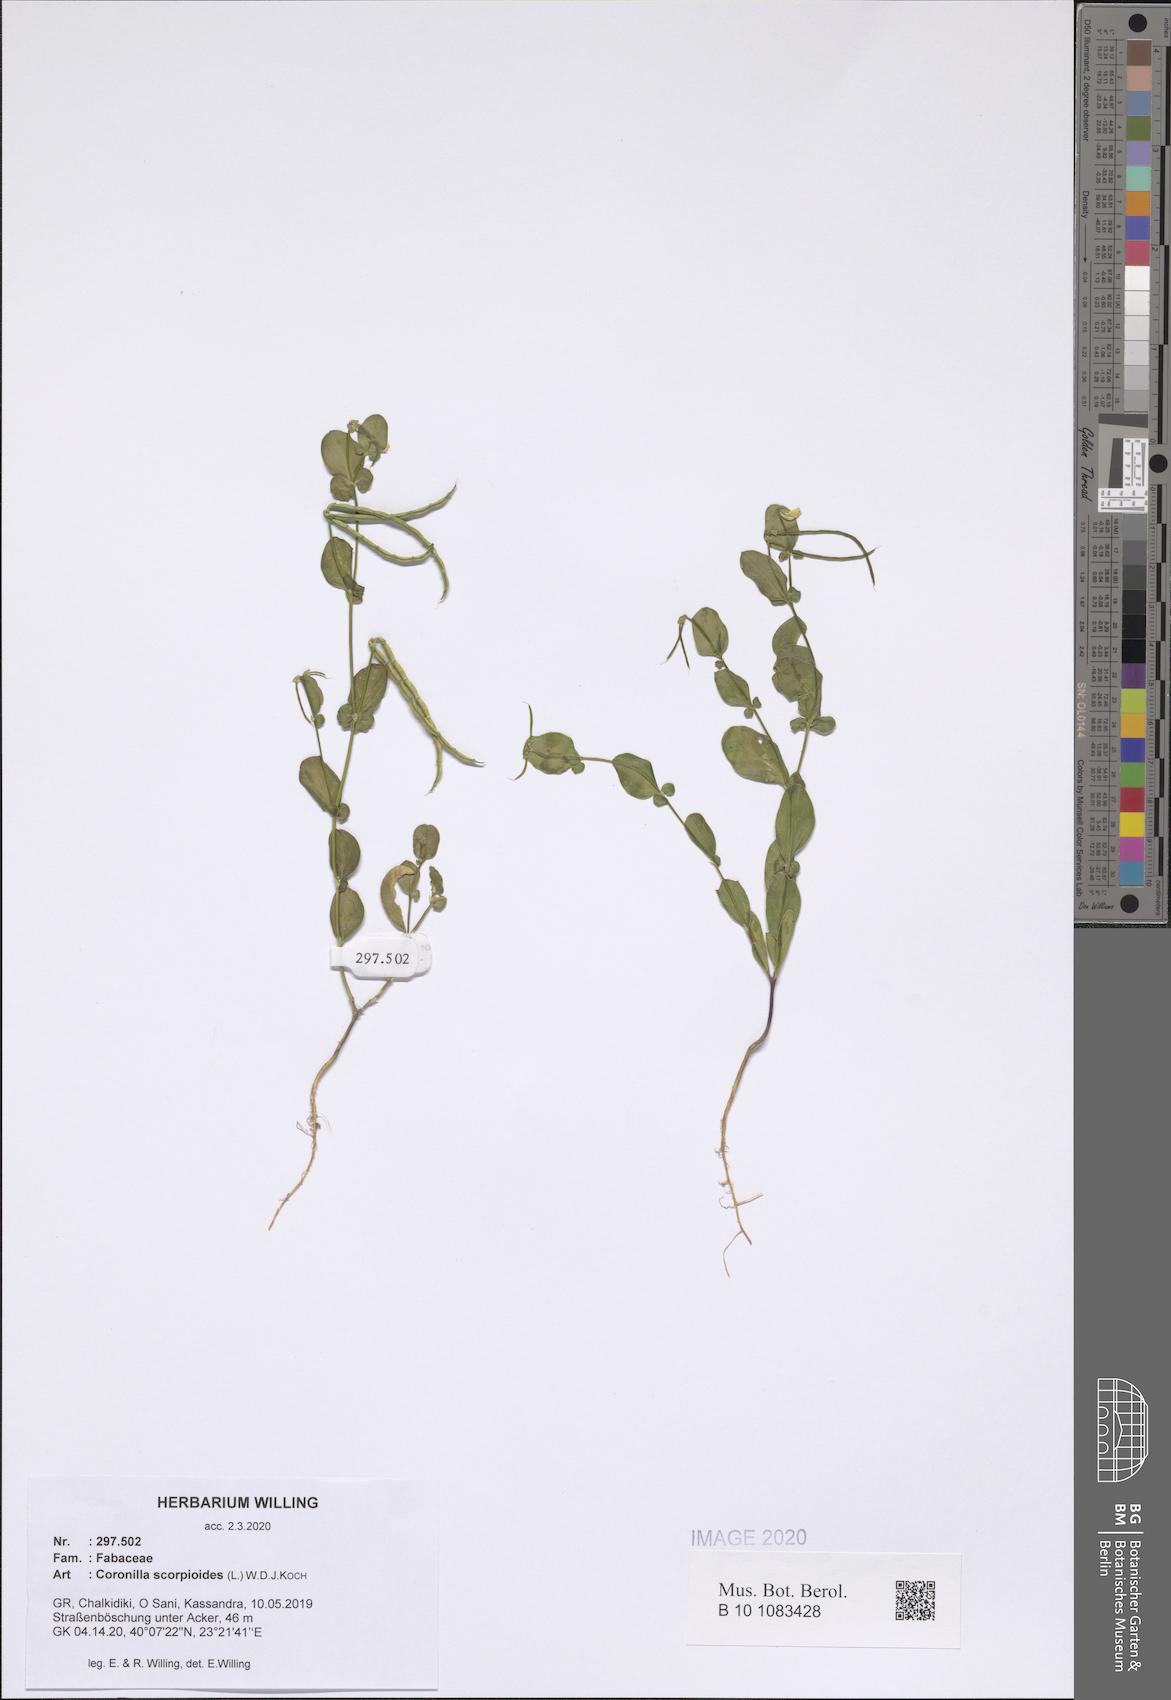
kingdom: Plantae
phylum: Tracheophyta
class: Magnoliopsida
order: Fabales
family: Fabaceae
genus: Coronilla
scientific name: Coronilla scorpioides
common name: Annual scorpion-vetch
